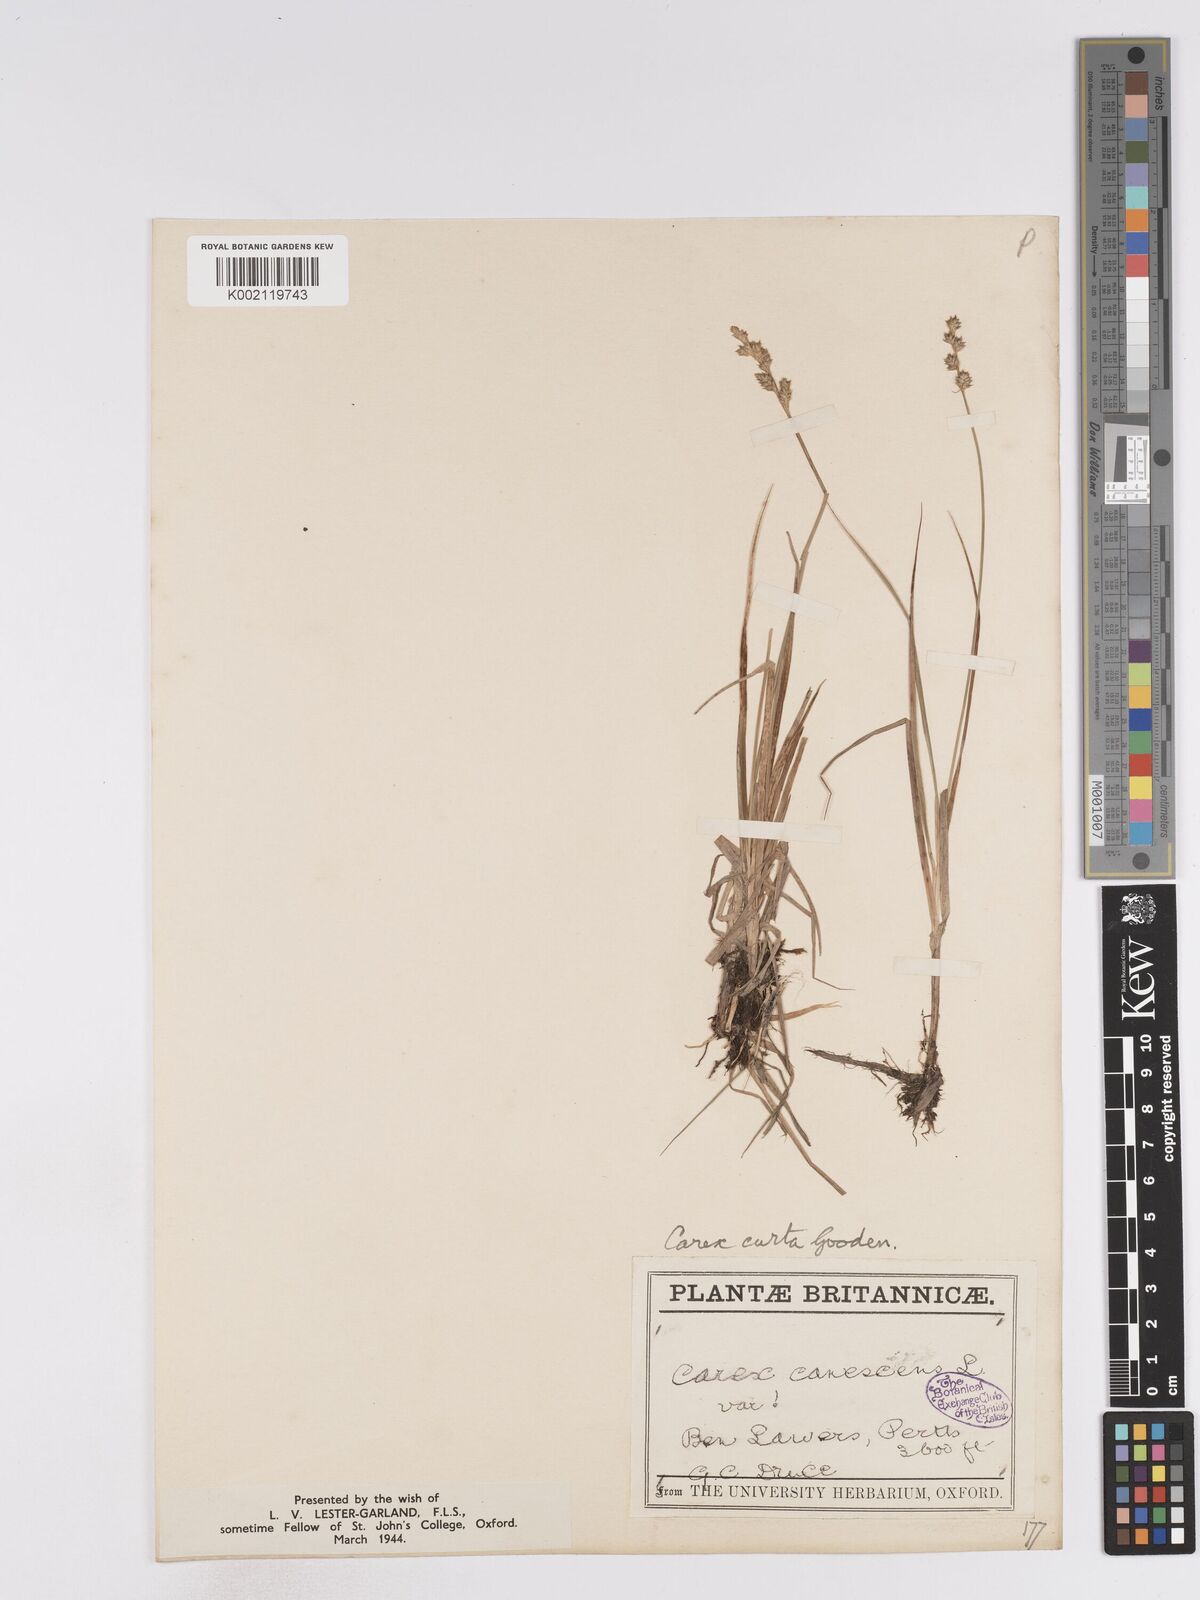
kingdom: Plantae
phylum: Tracheophyta
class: Liliopsida
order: Poales
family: Cyperaceae
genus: Carex
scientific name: Carex curta
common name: White sedge
